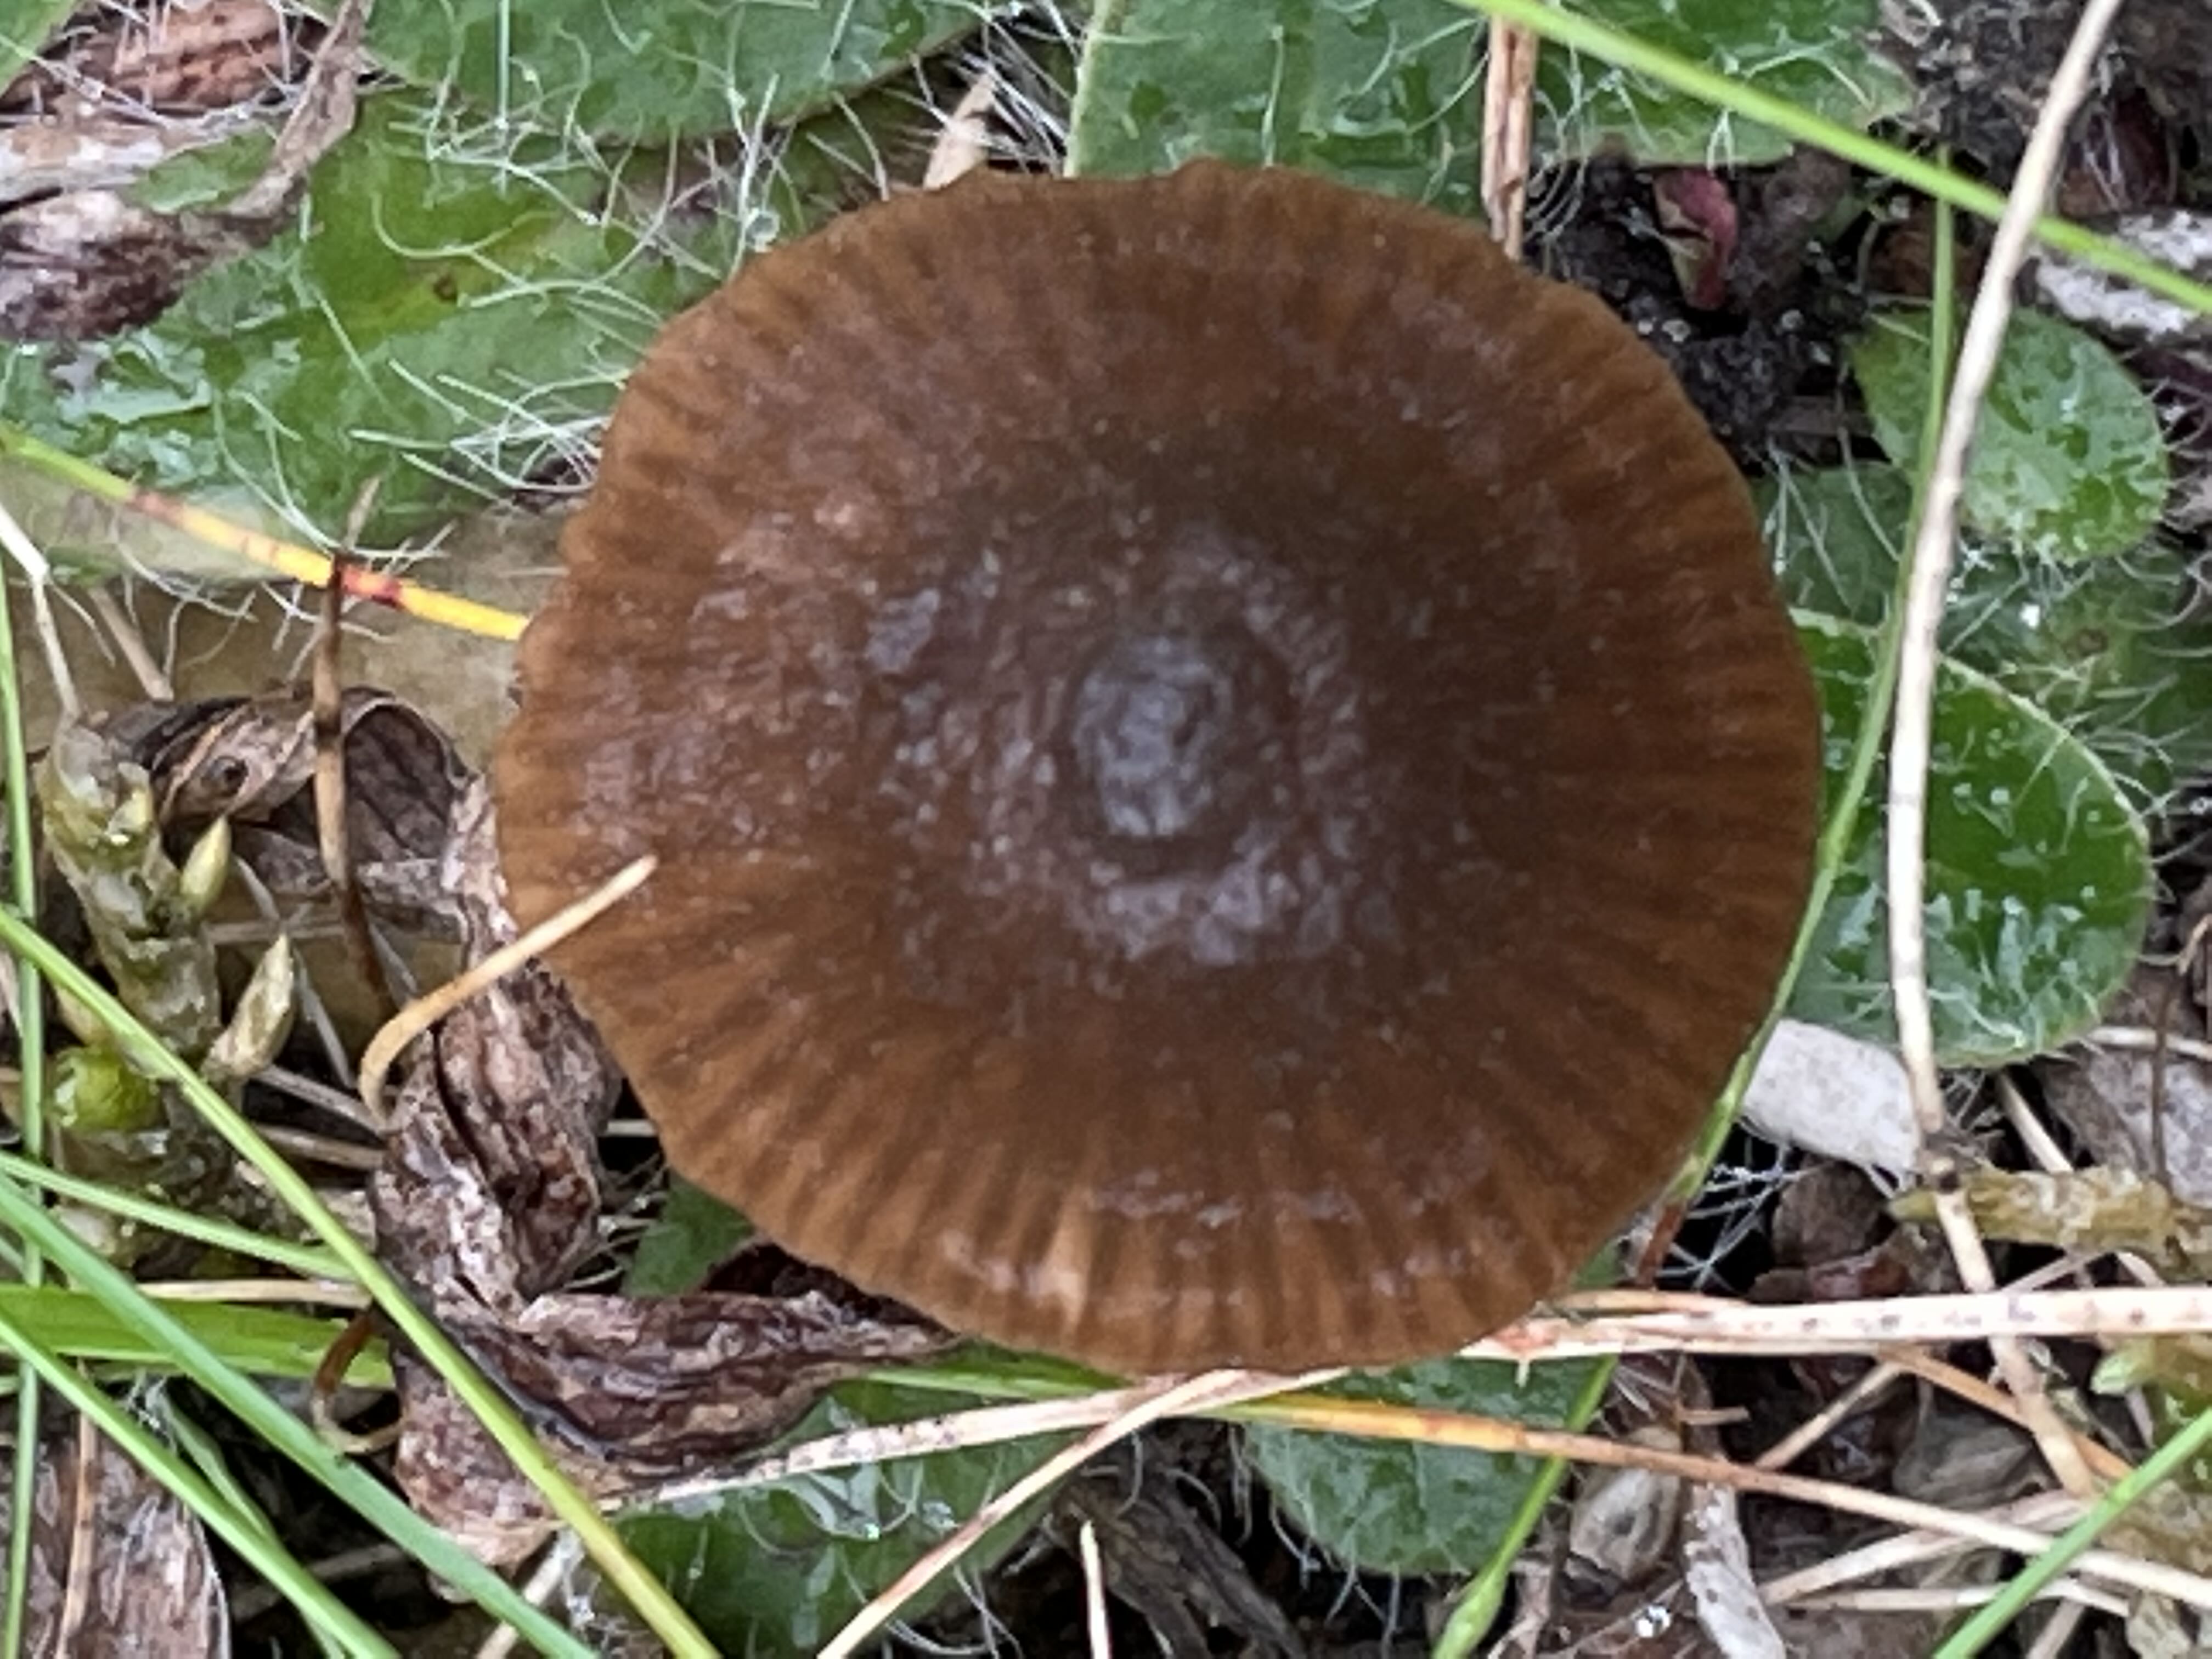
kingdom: Fungi
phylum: Basidiomycota
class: Agaricomycetes
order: Agaricales
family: Entolomataceae
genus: Entoloma
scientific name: Entoloma
